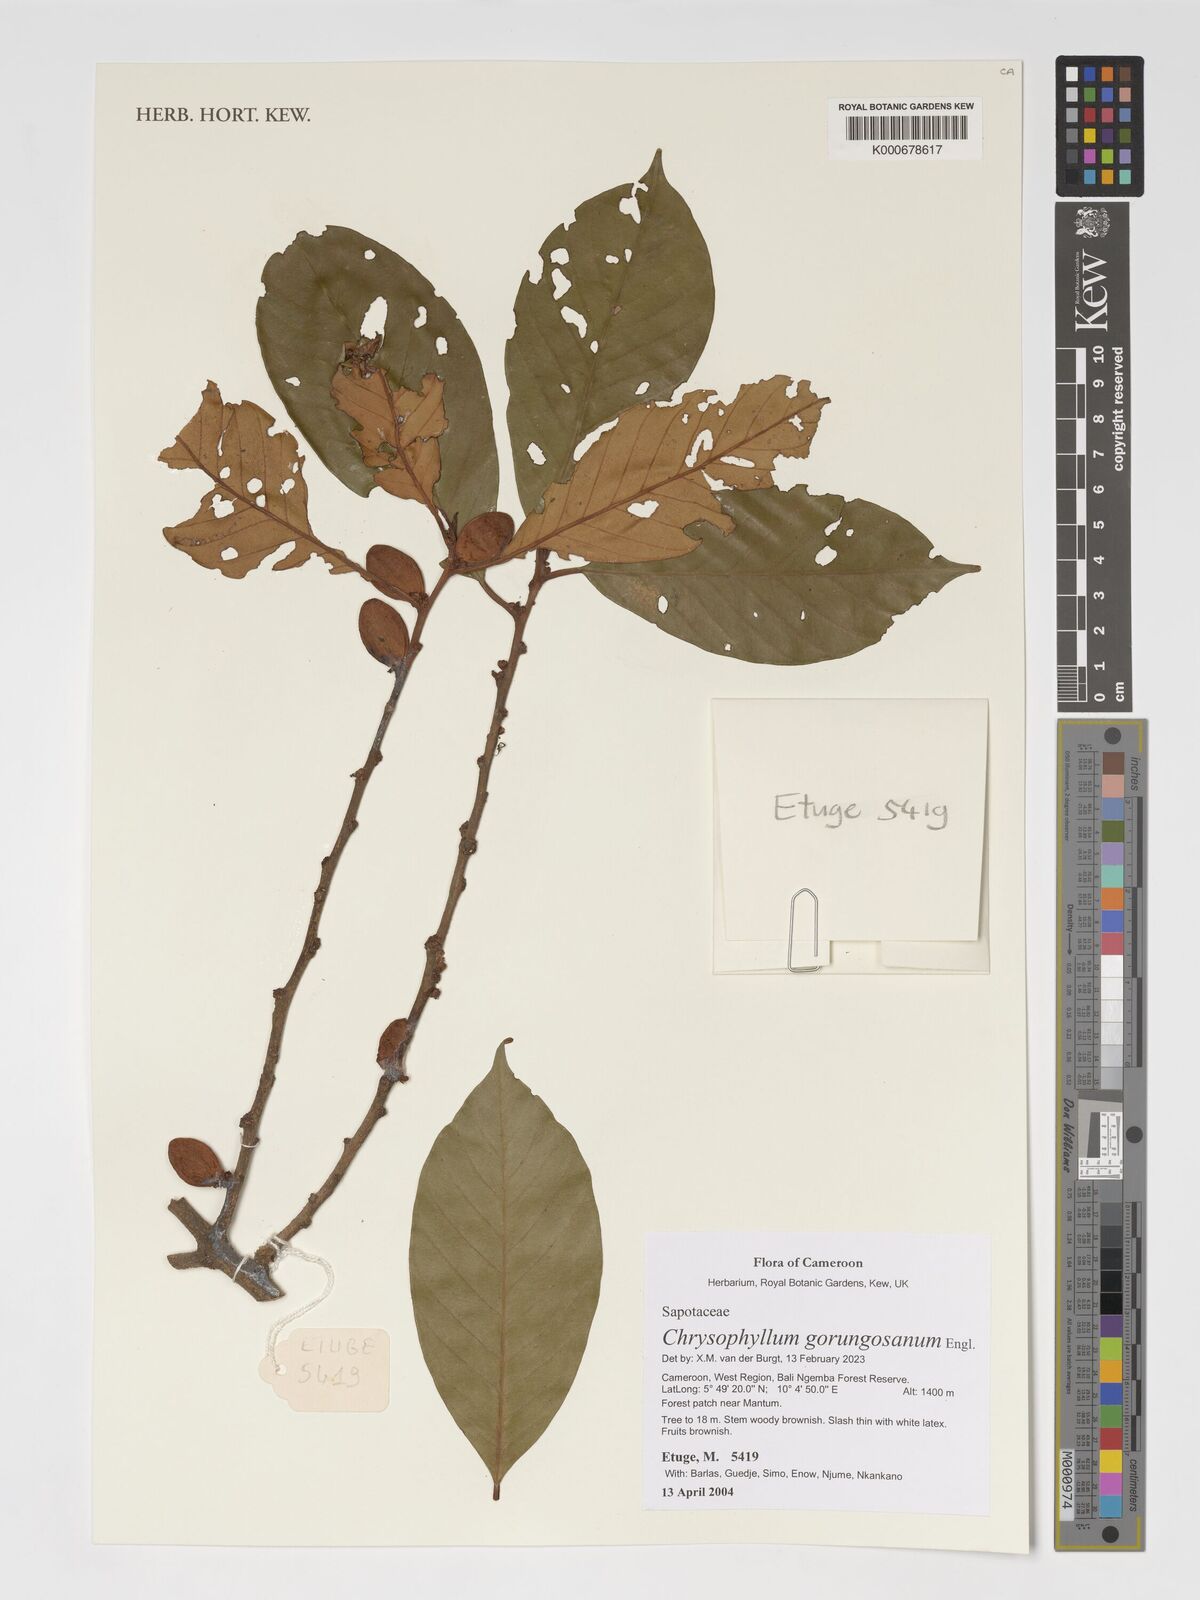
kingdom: Plantae
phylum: Tracheophyta
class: Magnoliopsida
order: Ericales
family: Sapotaceae
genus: Gambeya
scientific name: Gambeya gorungosana
